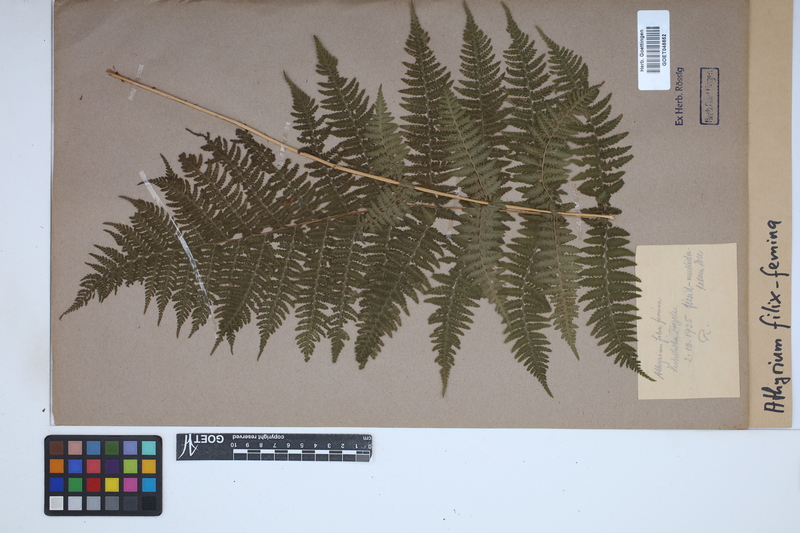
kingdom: Plantae
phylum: Tracheophyta
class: Polypodiopsida
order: Polypodiales
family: Athyriaceae
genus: Athyrium
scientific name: Athyrium filix-femina
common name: Lady fern
